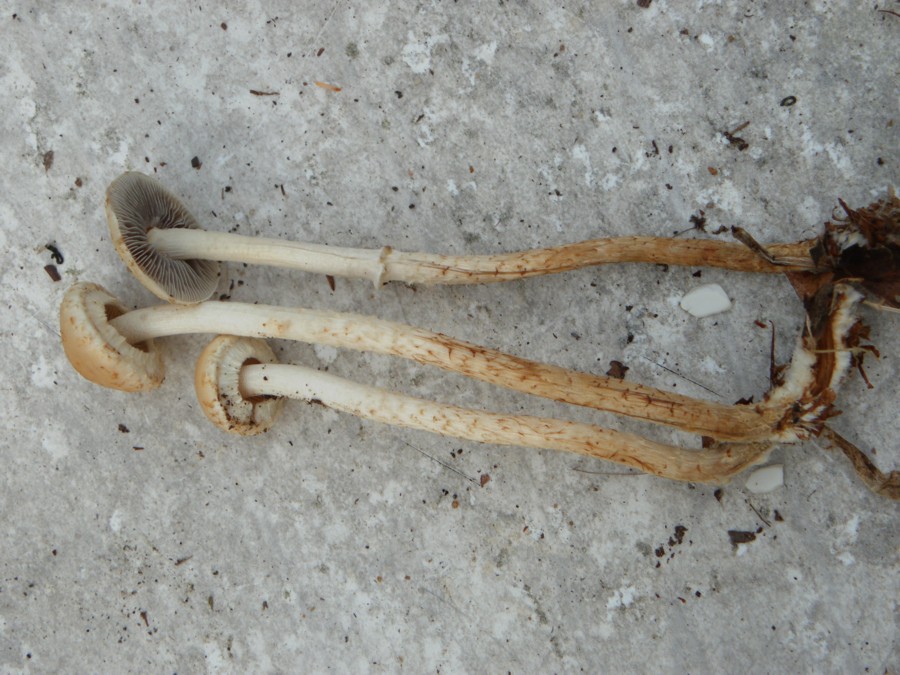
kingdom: Fungi
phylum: Basidiomycota
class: Agaricomycetes
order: Agaricales
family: Strophariaceae
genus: Leratiomyces
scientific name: Leratiomyces squamosus
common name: skællet bredblad
